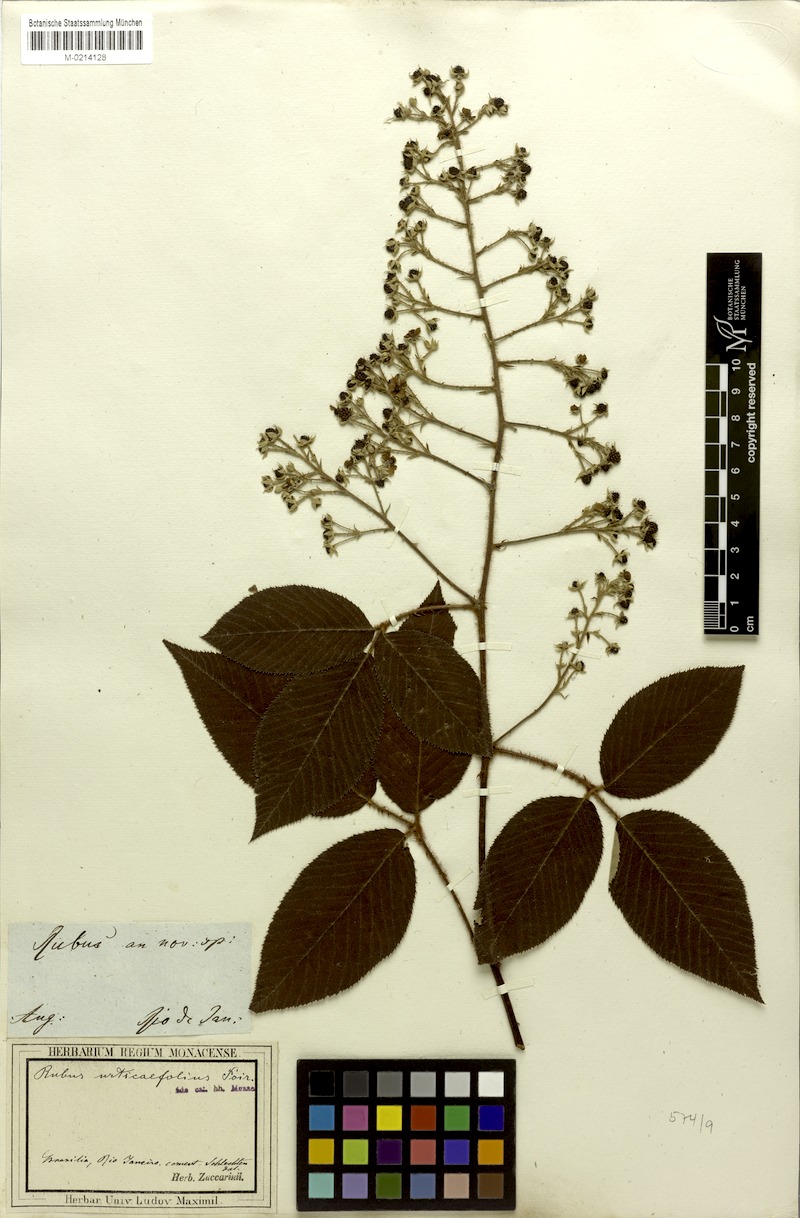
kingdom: Plantae
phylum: Tracheophyta
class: Magnoliopsida
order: Rosales
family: Rosaceae
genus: Rubus
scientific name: Rubus urticifolius
